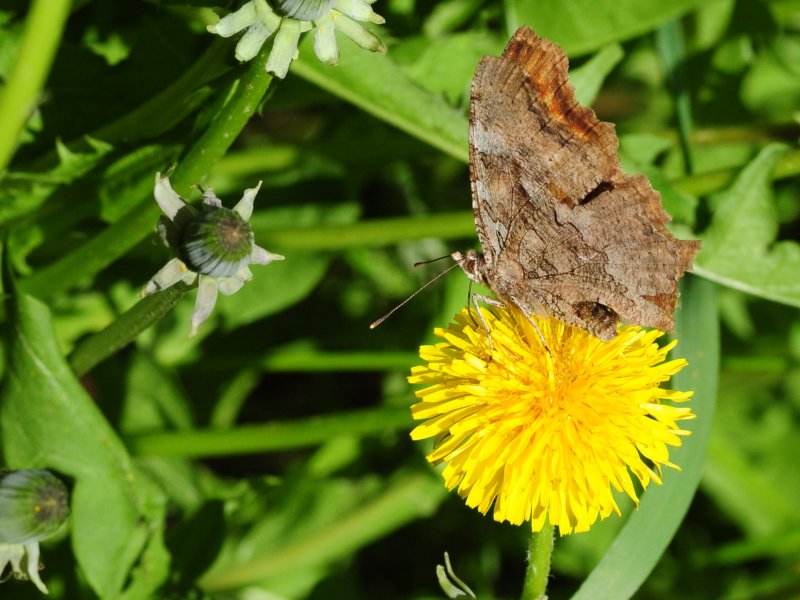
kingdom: Animalia
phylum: Arthropoda
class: Insecta
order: Lepidoptera
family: Nymphalidae
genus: Polygonia
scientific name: Polygonia satyrus
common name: Satyr Comma
